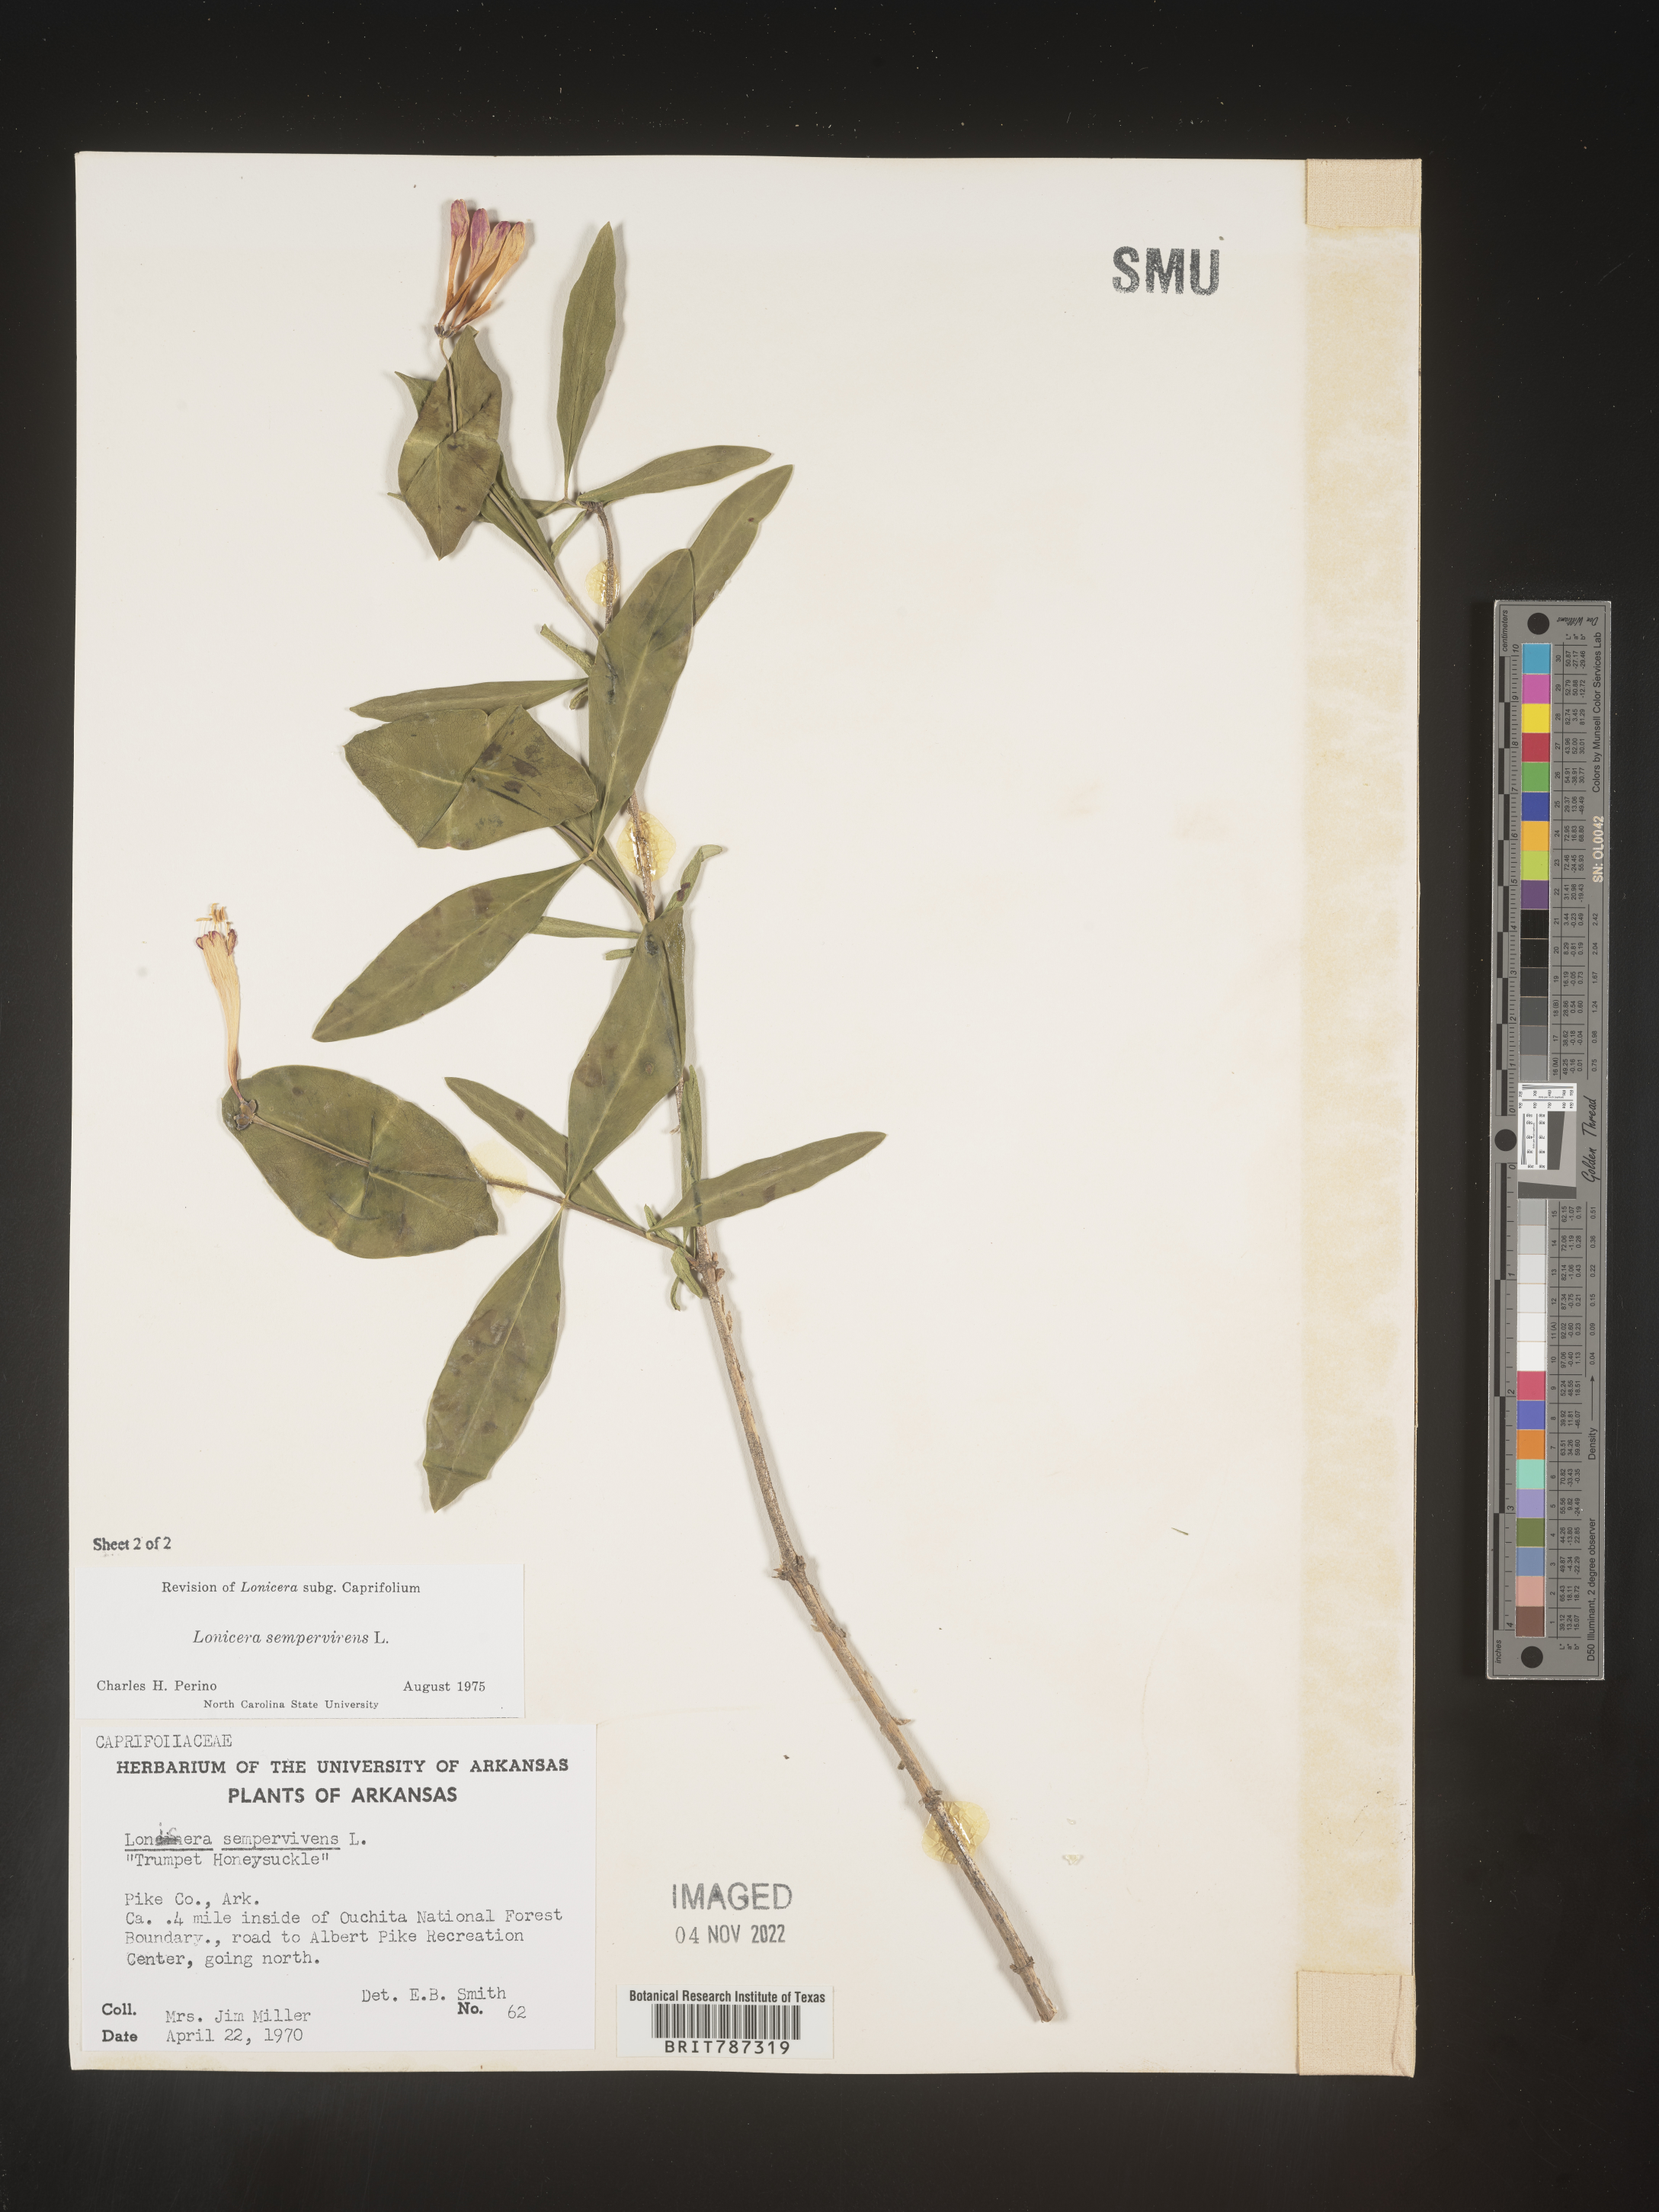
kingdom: Plantae
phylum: Tracheophyta
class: Magnoliopsida
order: Dipsacales
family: Caprifoliaceae
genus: Lonicera
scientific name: Lonicera sempervirens
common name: Coral honeysuckle
